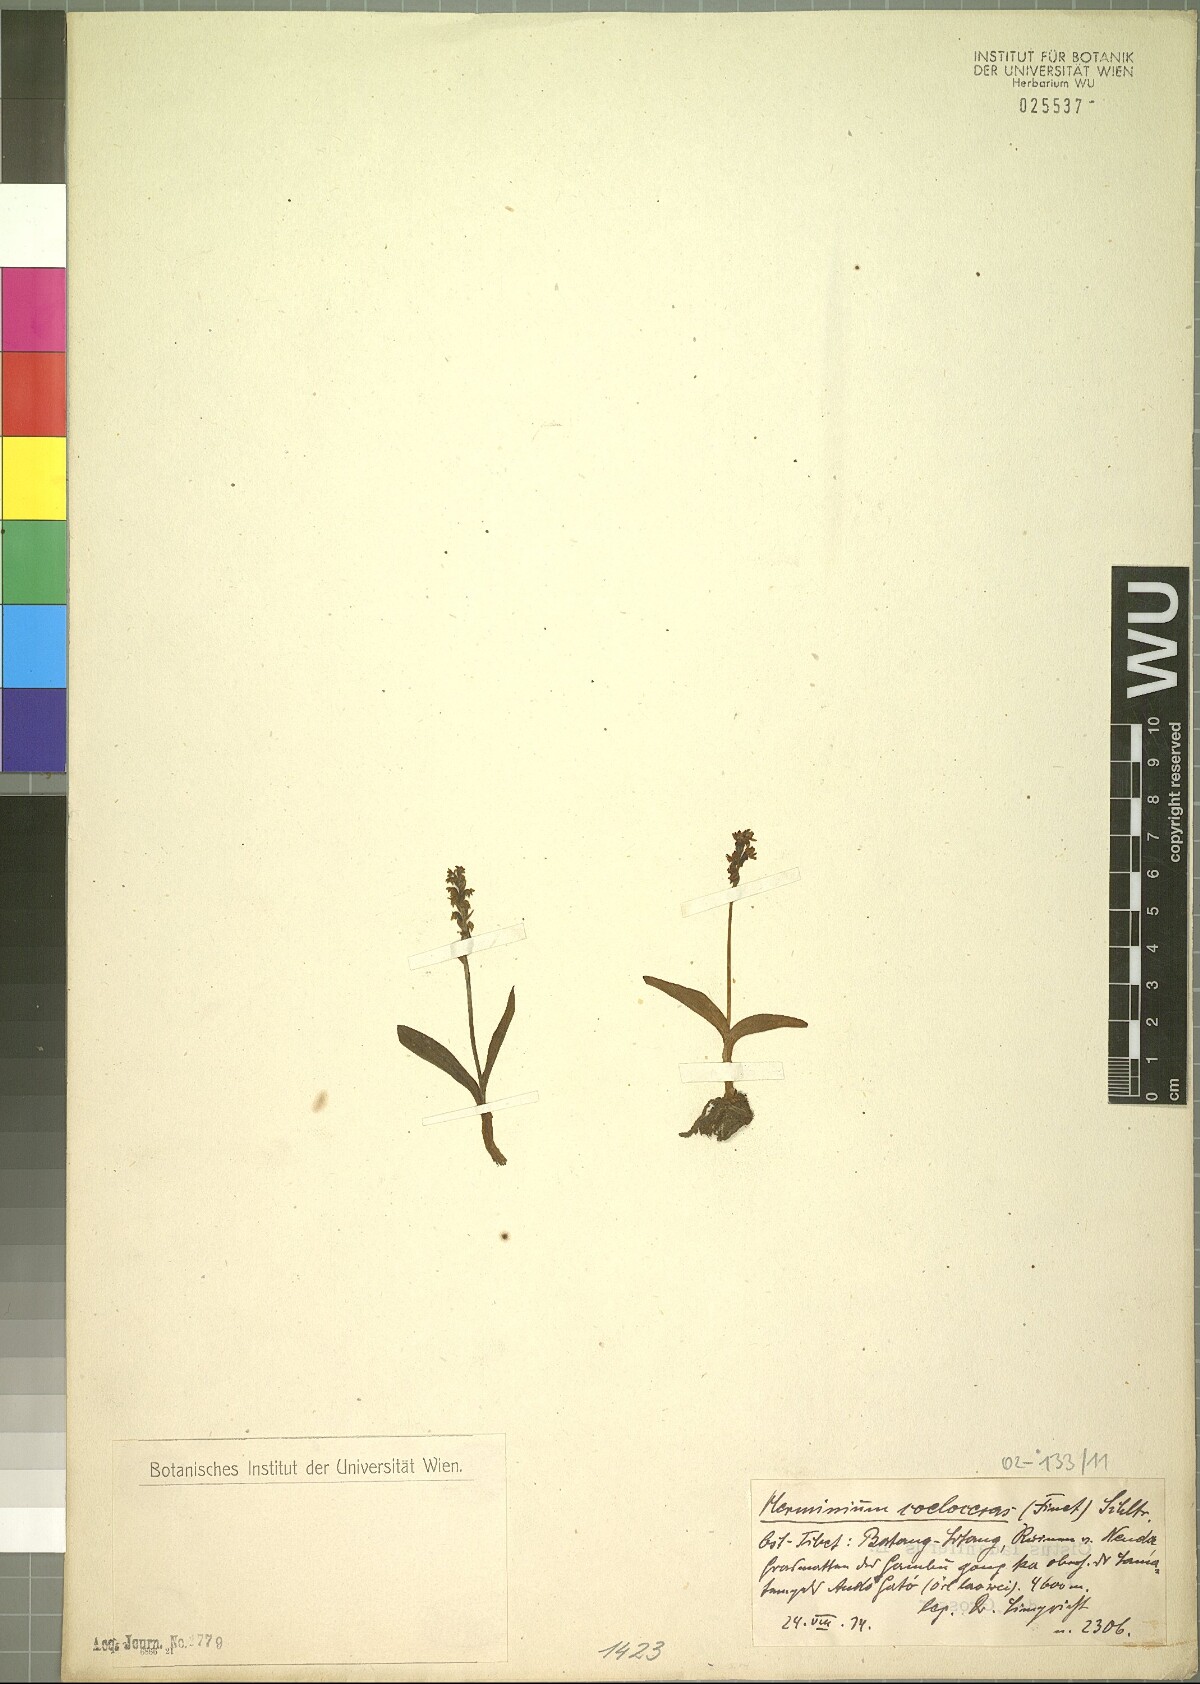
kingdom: Plantae
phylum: Tracheophyta
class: Liliopsida
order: Asparagales
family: Orchidaceae
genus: Herminium
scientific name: Herminium coeloceras
